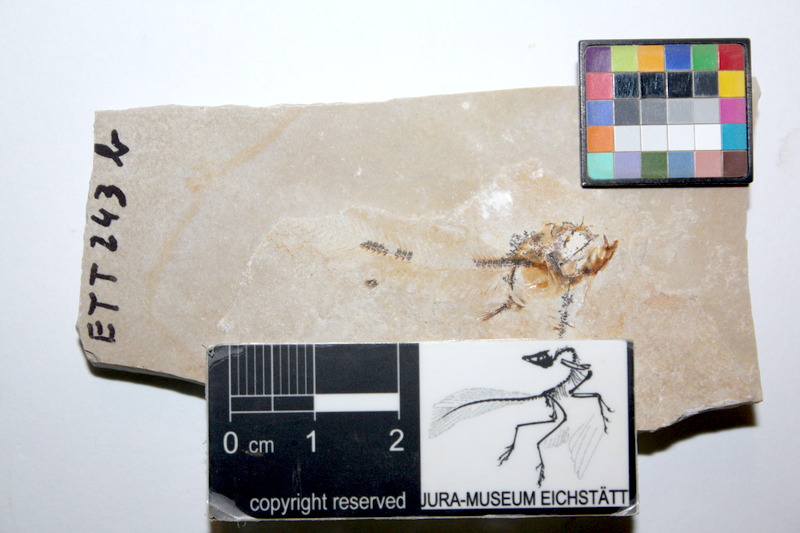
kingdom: Animalia
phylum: Chordata
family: Allothrissopidae
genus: Allothrissops
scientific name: Allothrissops mesogaster
